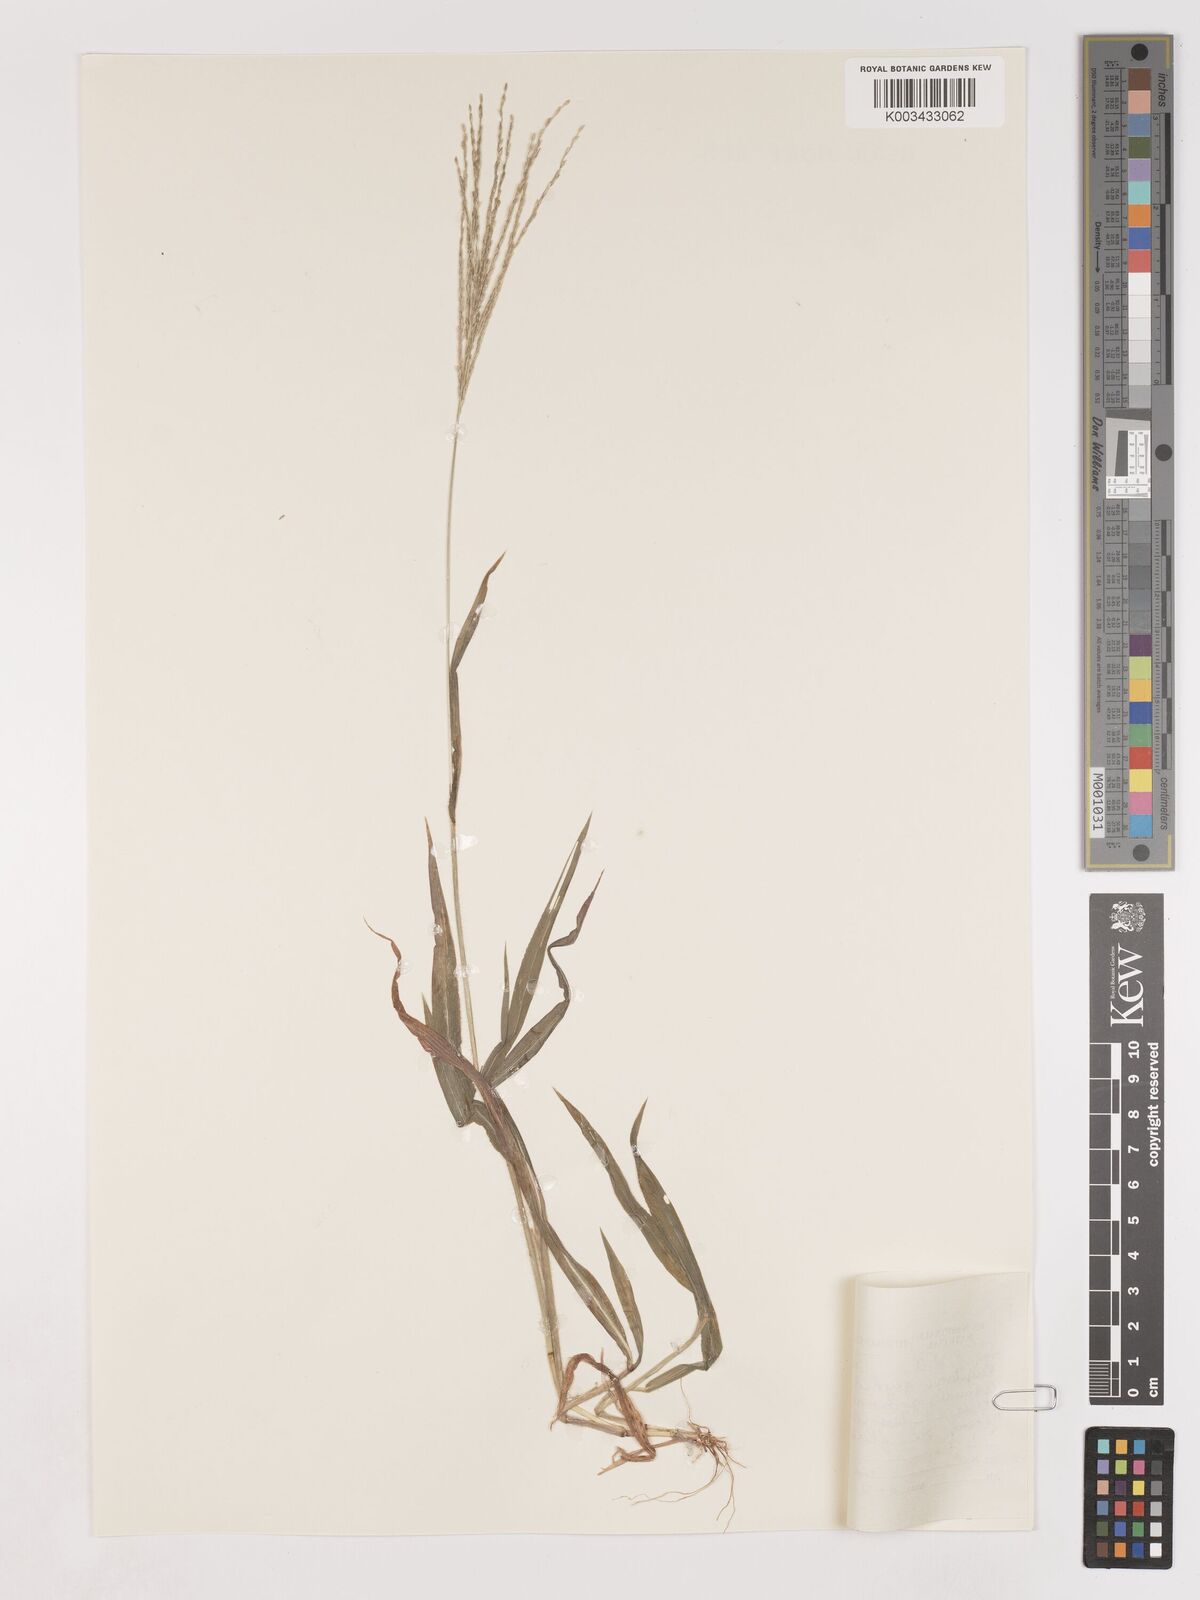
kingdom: Plantae
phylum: Tracheophyta
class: Liliopsida
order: Poales
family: Poaceae
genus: Digitaria
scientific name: Digitaria velutina
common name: Long-plume finger grass
